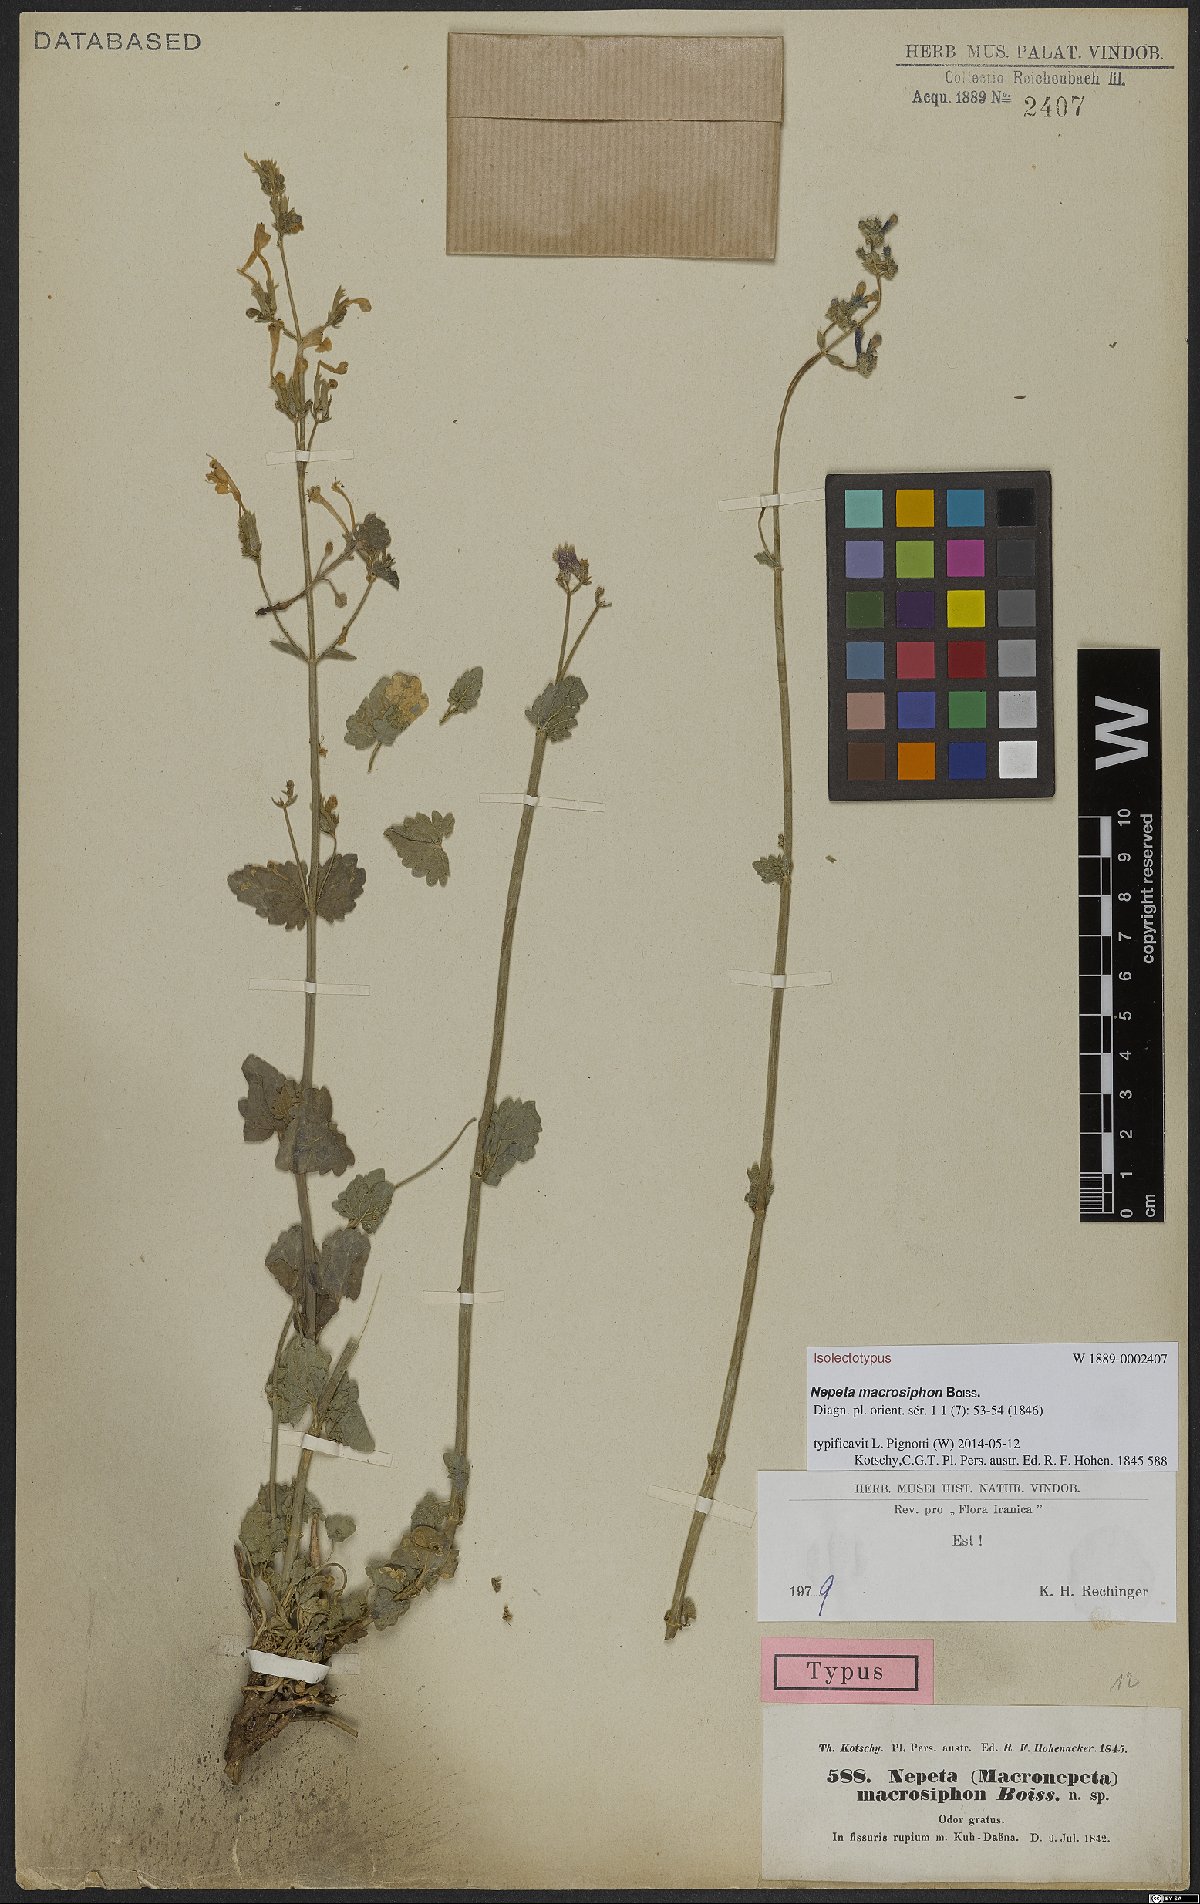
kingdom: Plantae
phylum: Tracheophyta
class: Magnoliopsida
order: Lamiales
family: Lamiaceae
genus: Nepeta
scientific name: Nepeta macrosiphon
